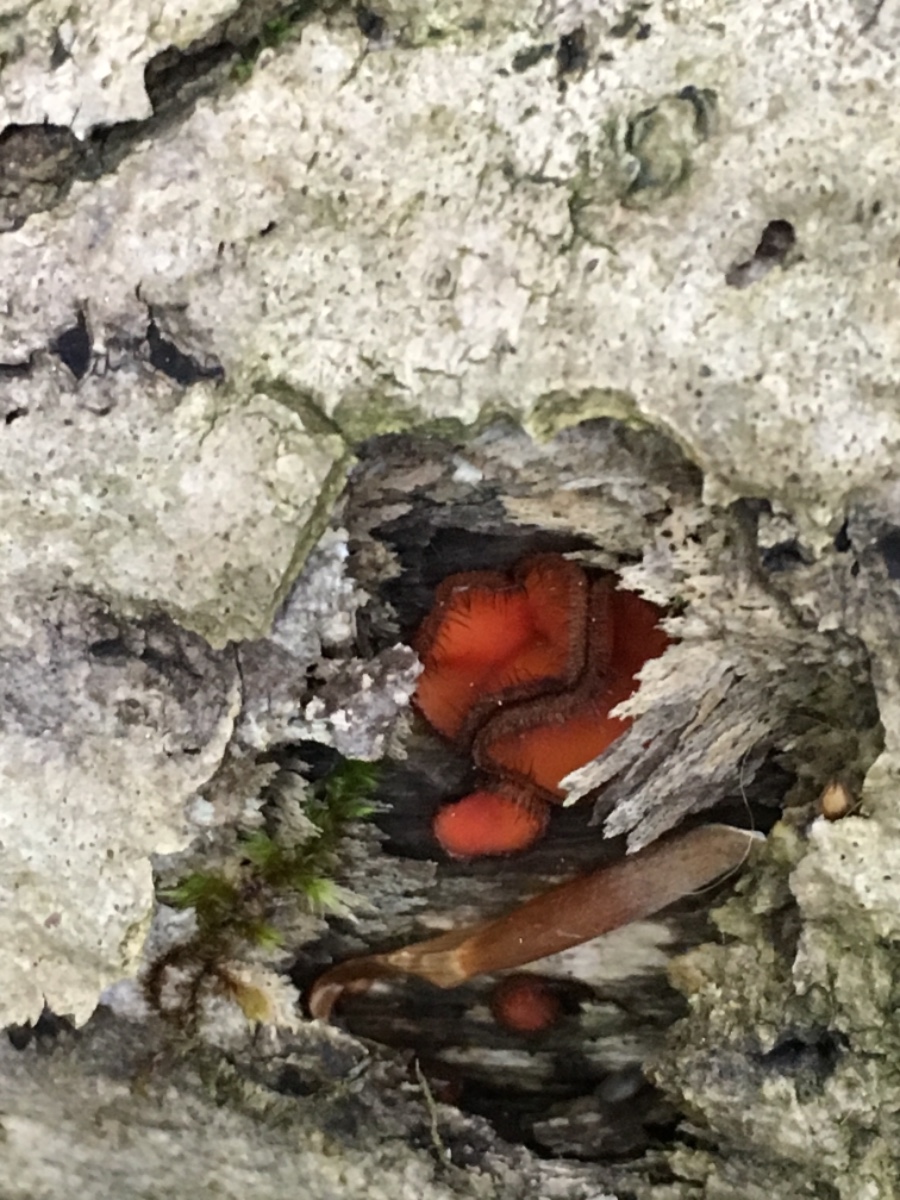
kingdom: Fungi
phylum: Ascomycota
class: Pezizomycetes
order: Pezizales
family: Pyronemataceae
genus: Scutellinia
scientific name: Scutellinia scutellata
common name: frynset skjoldbæger
